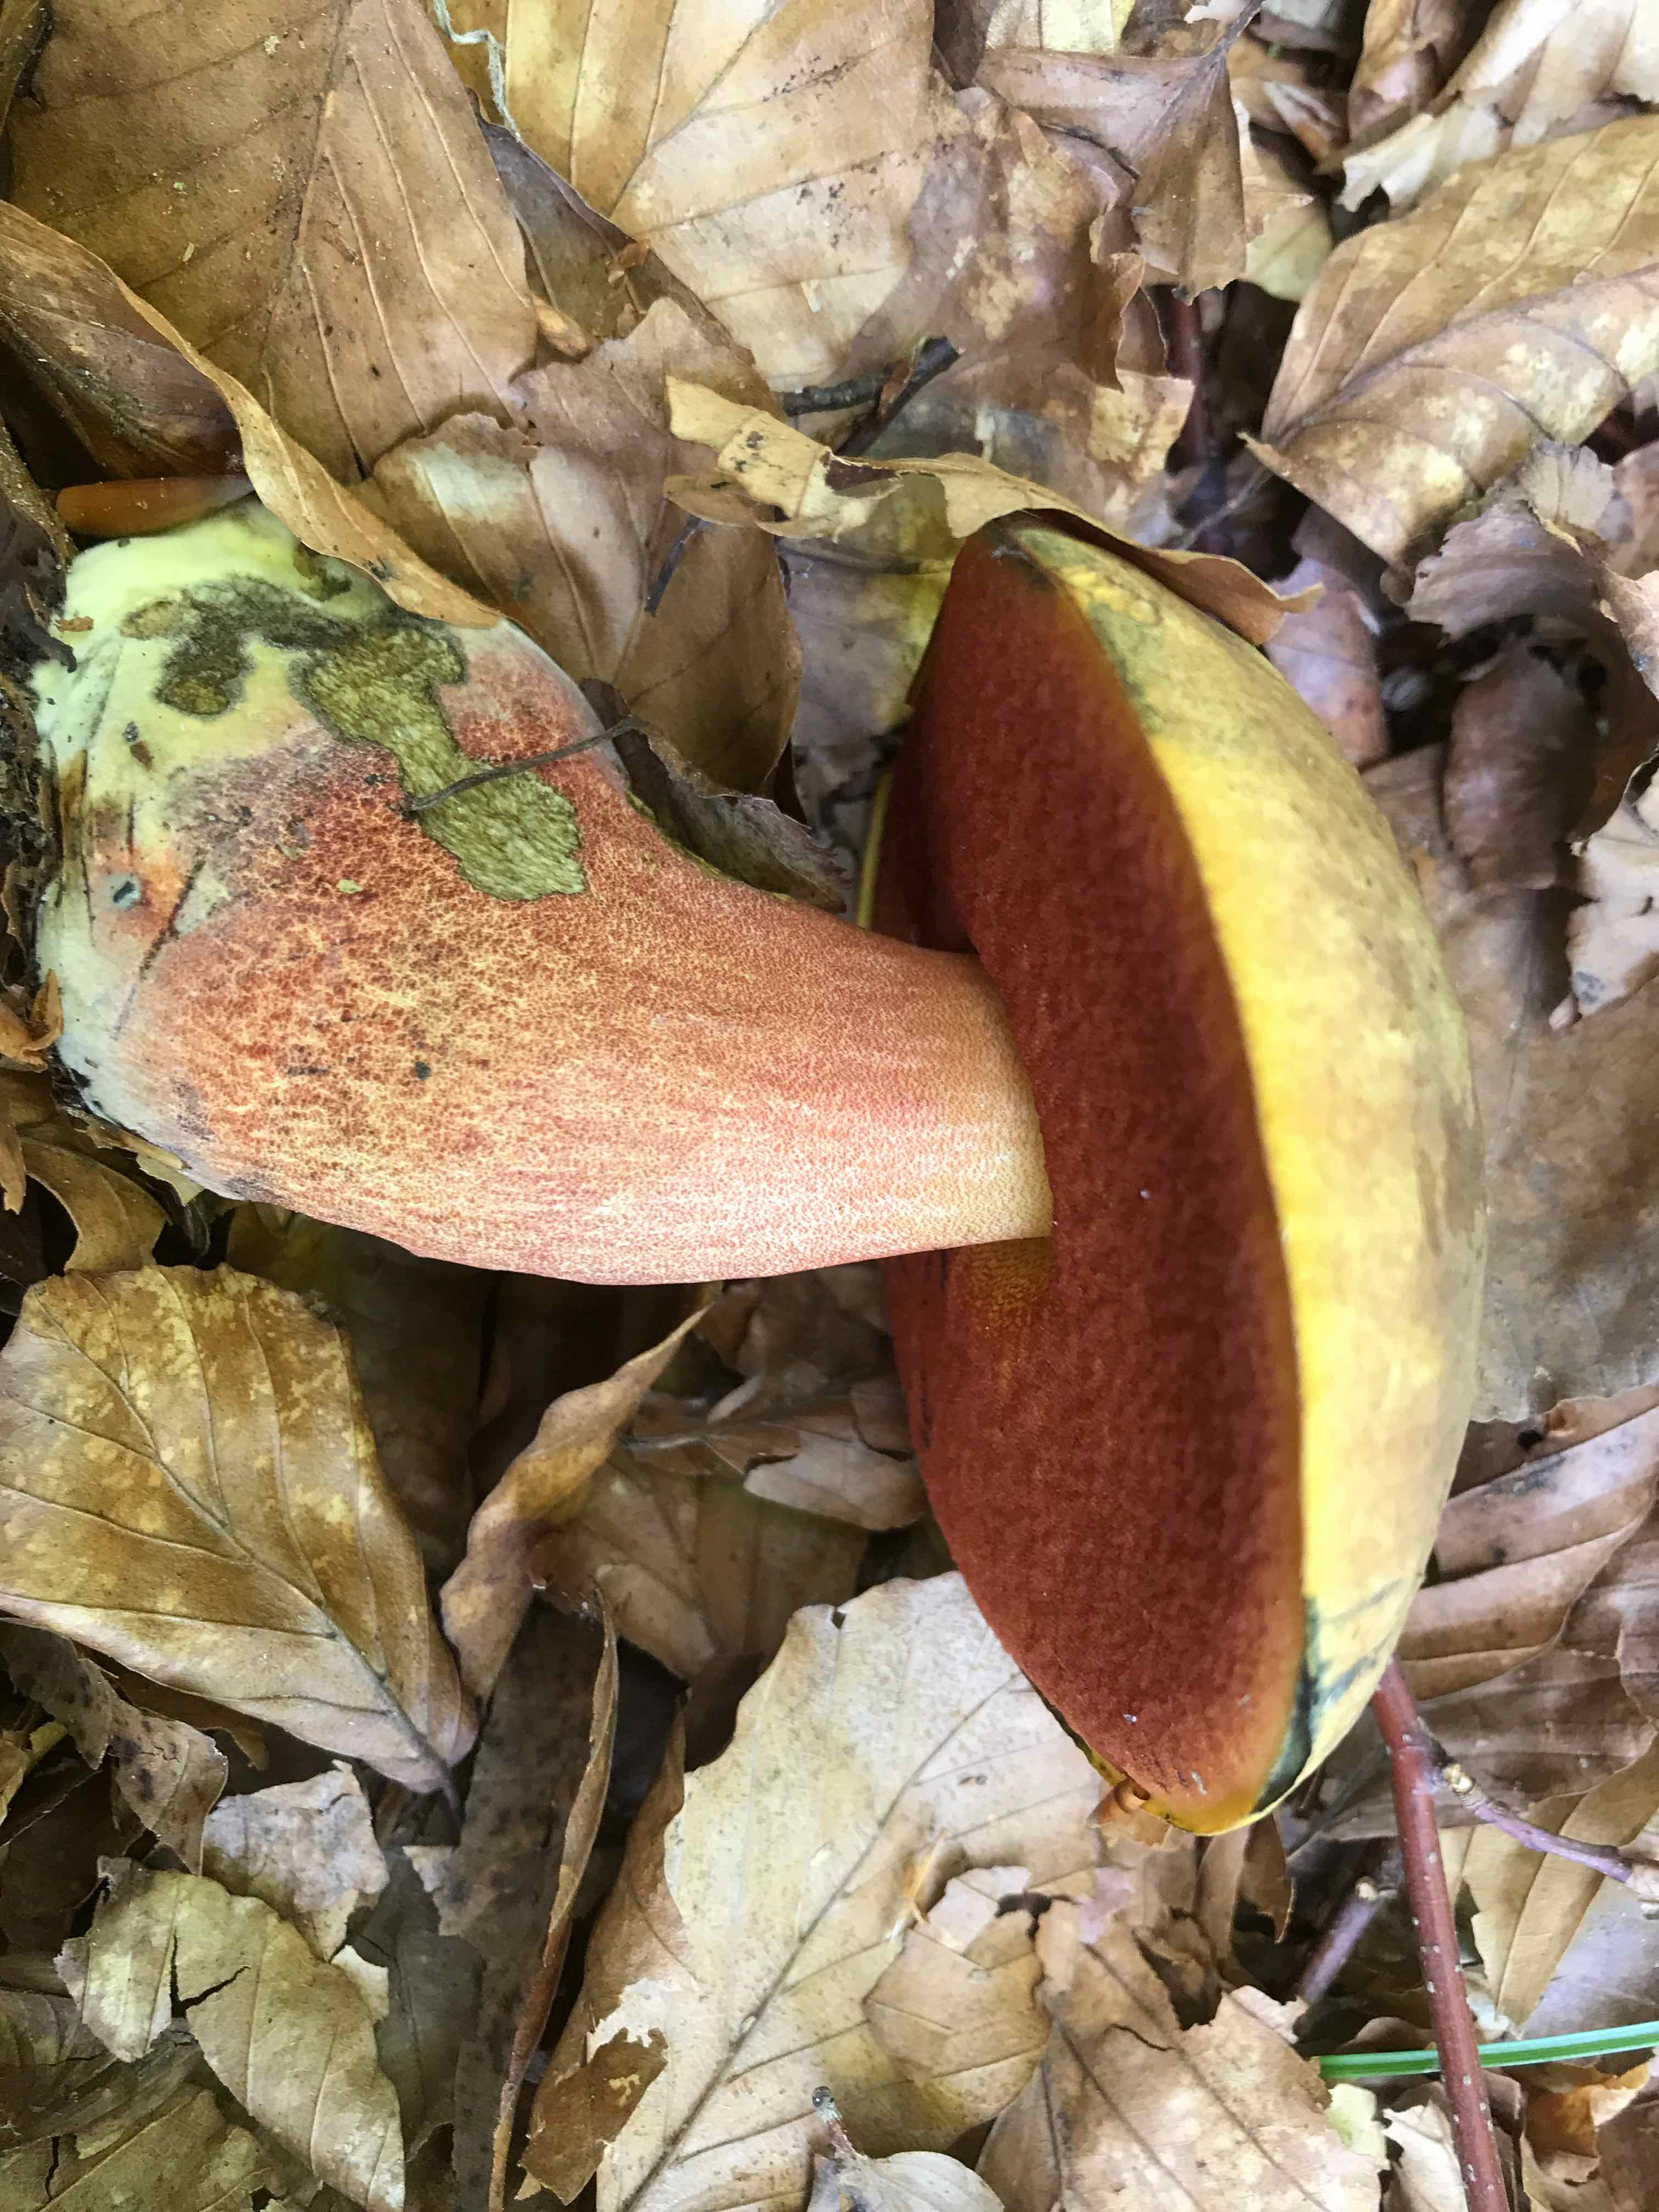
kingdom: Fungi
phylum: Basidiomycota
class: Agaricomycetes
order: Boletales
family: Boletaceae
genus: Neoboletus
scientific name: Neoboletus erythropus
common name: punktstokket indigorørhat
